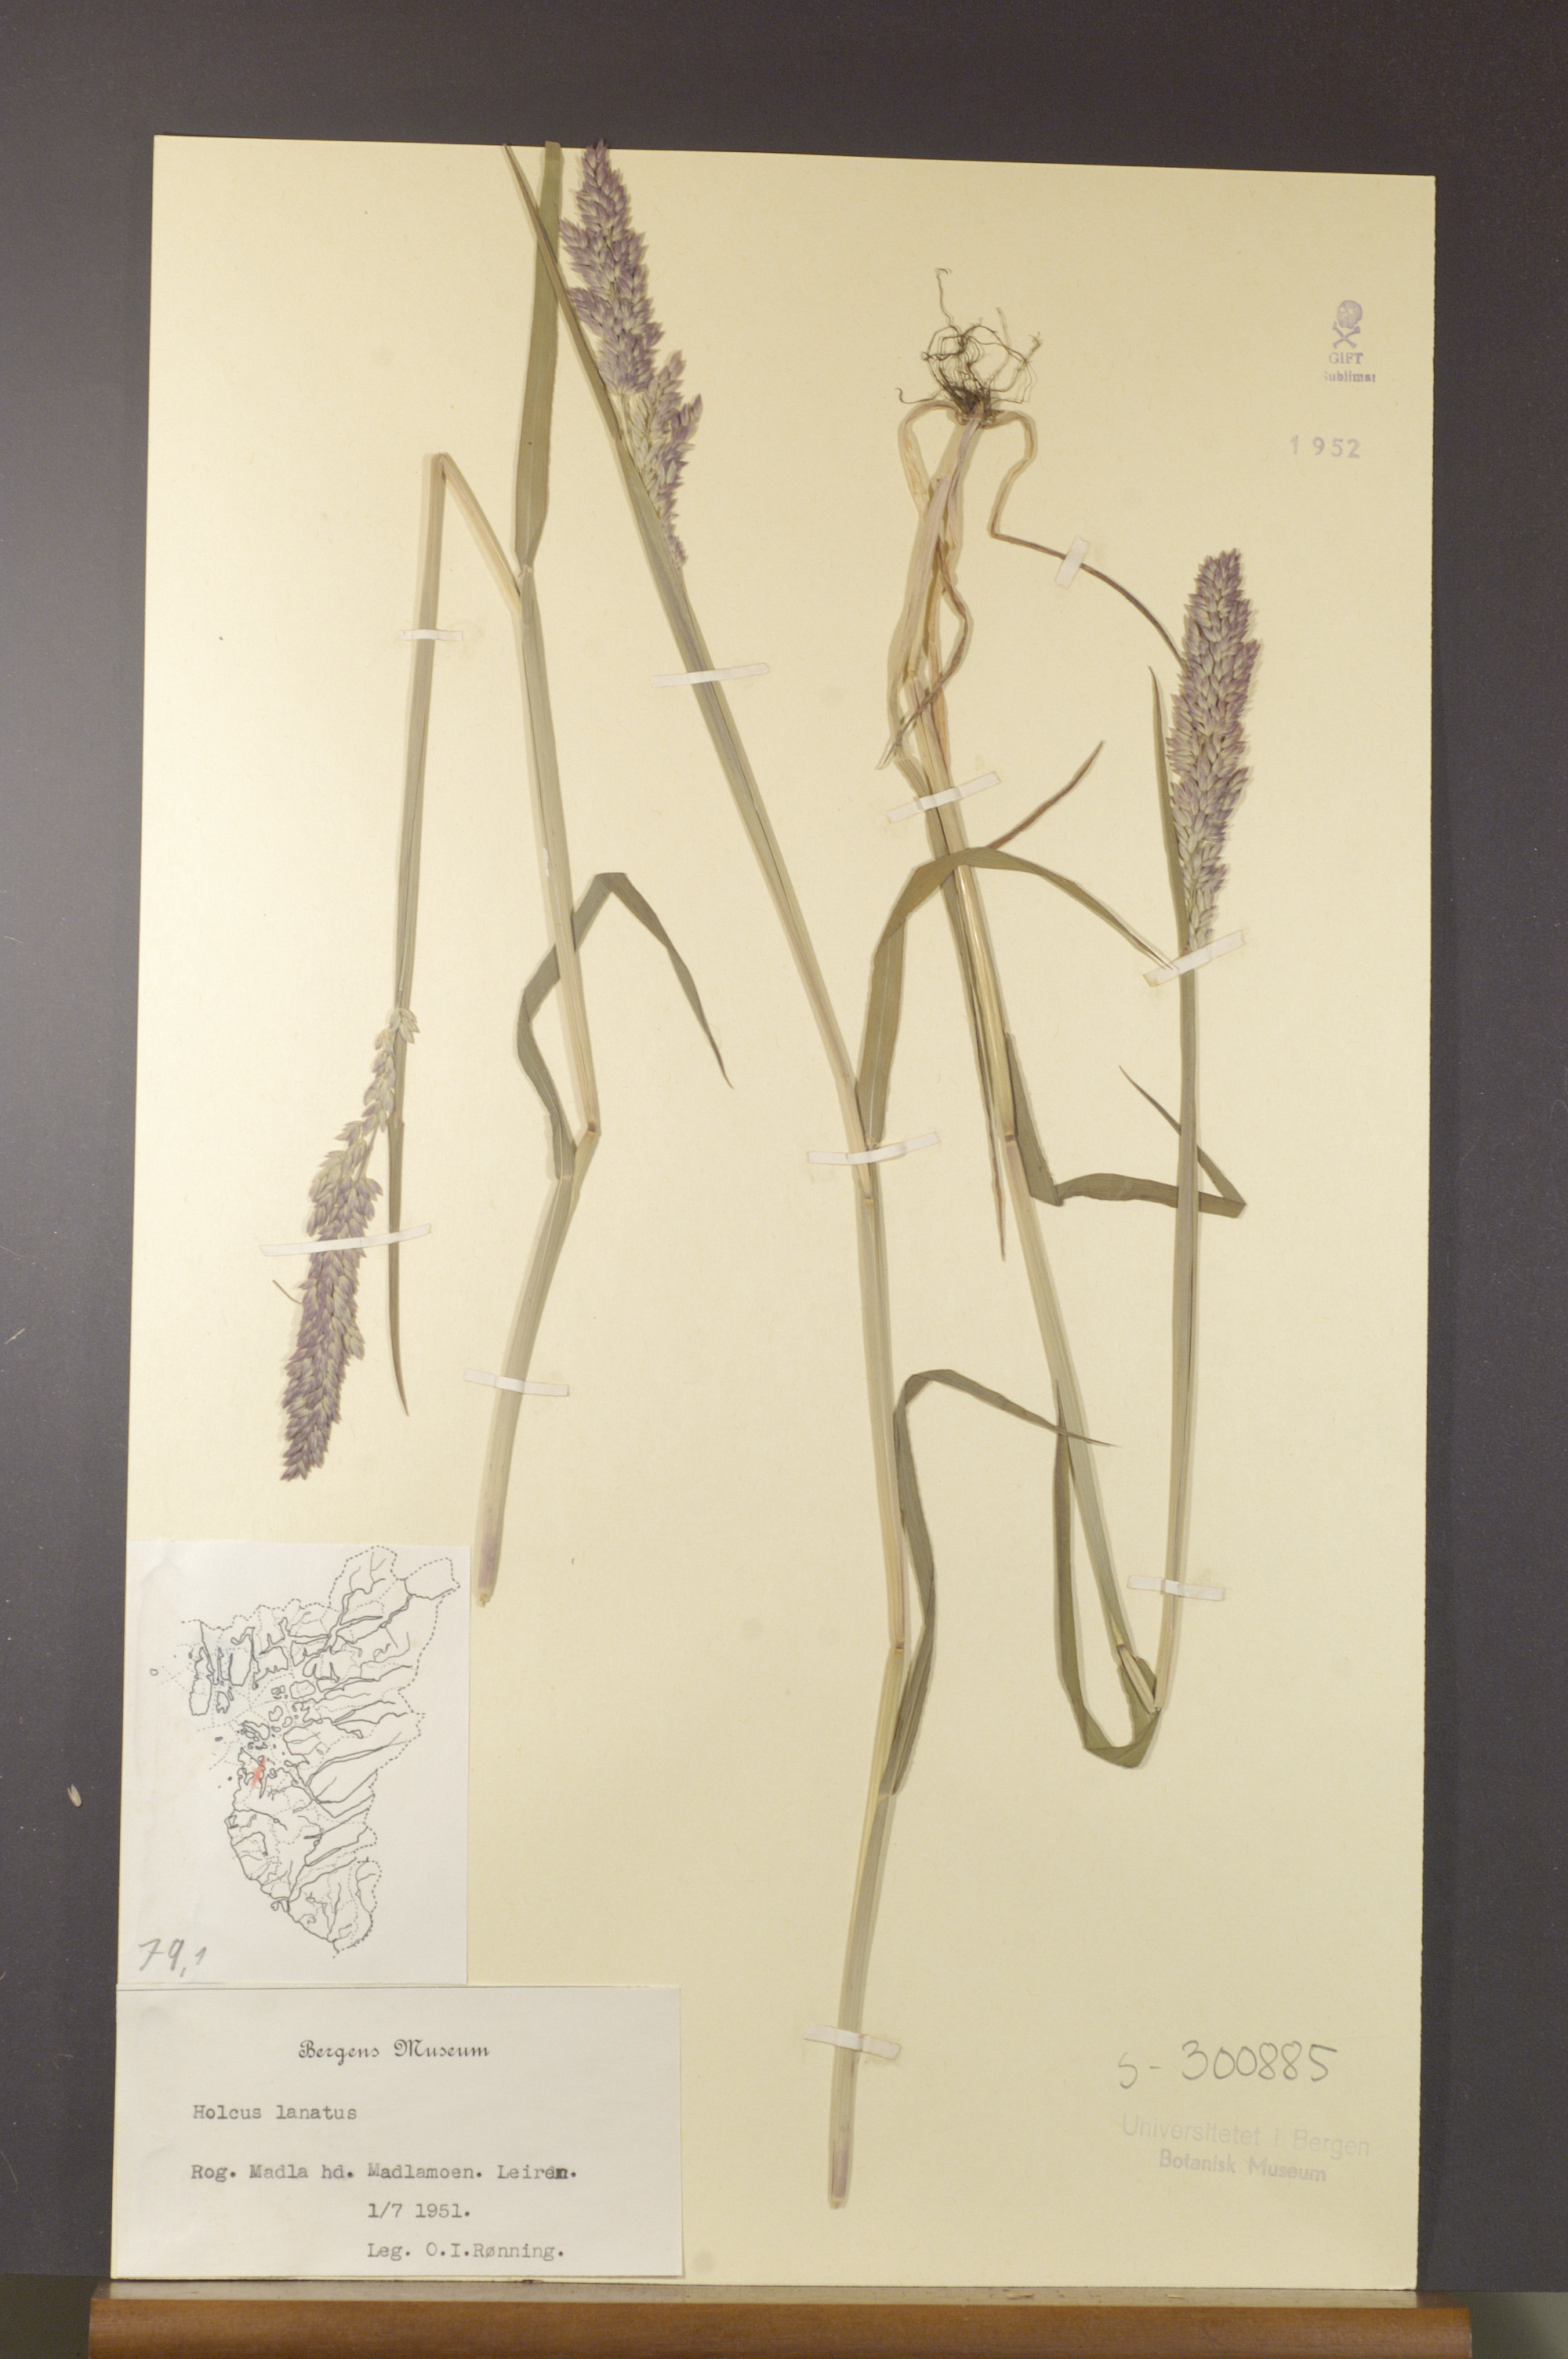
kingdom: Plantae
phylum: Tracheophyta
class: Liliopsida
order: Poales
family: Poaceae
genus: Holcus
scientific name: Holcus lanatus
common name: Yorkshire-fog
